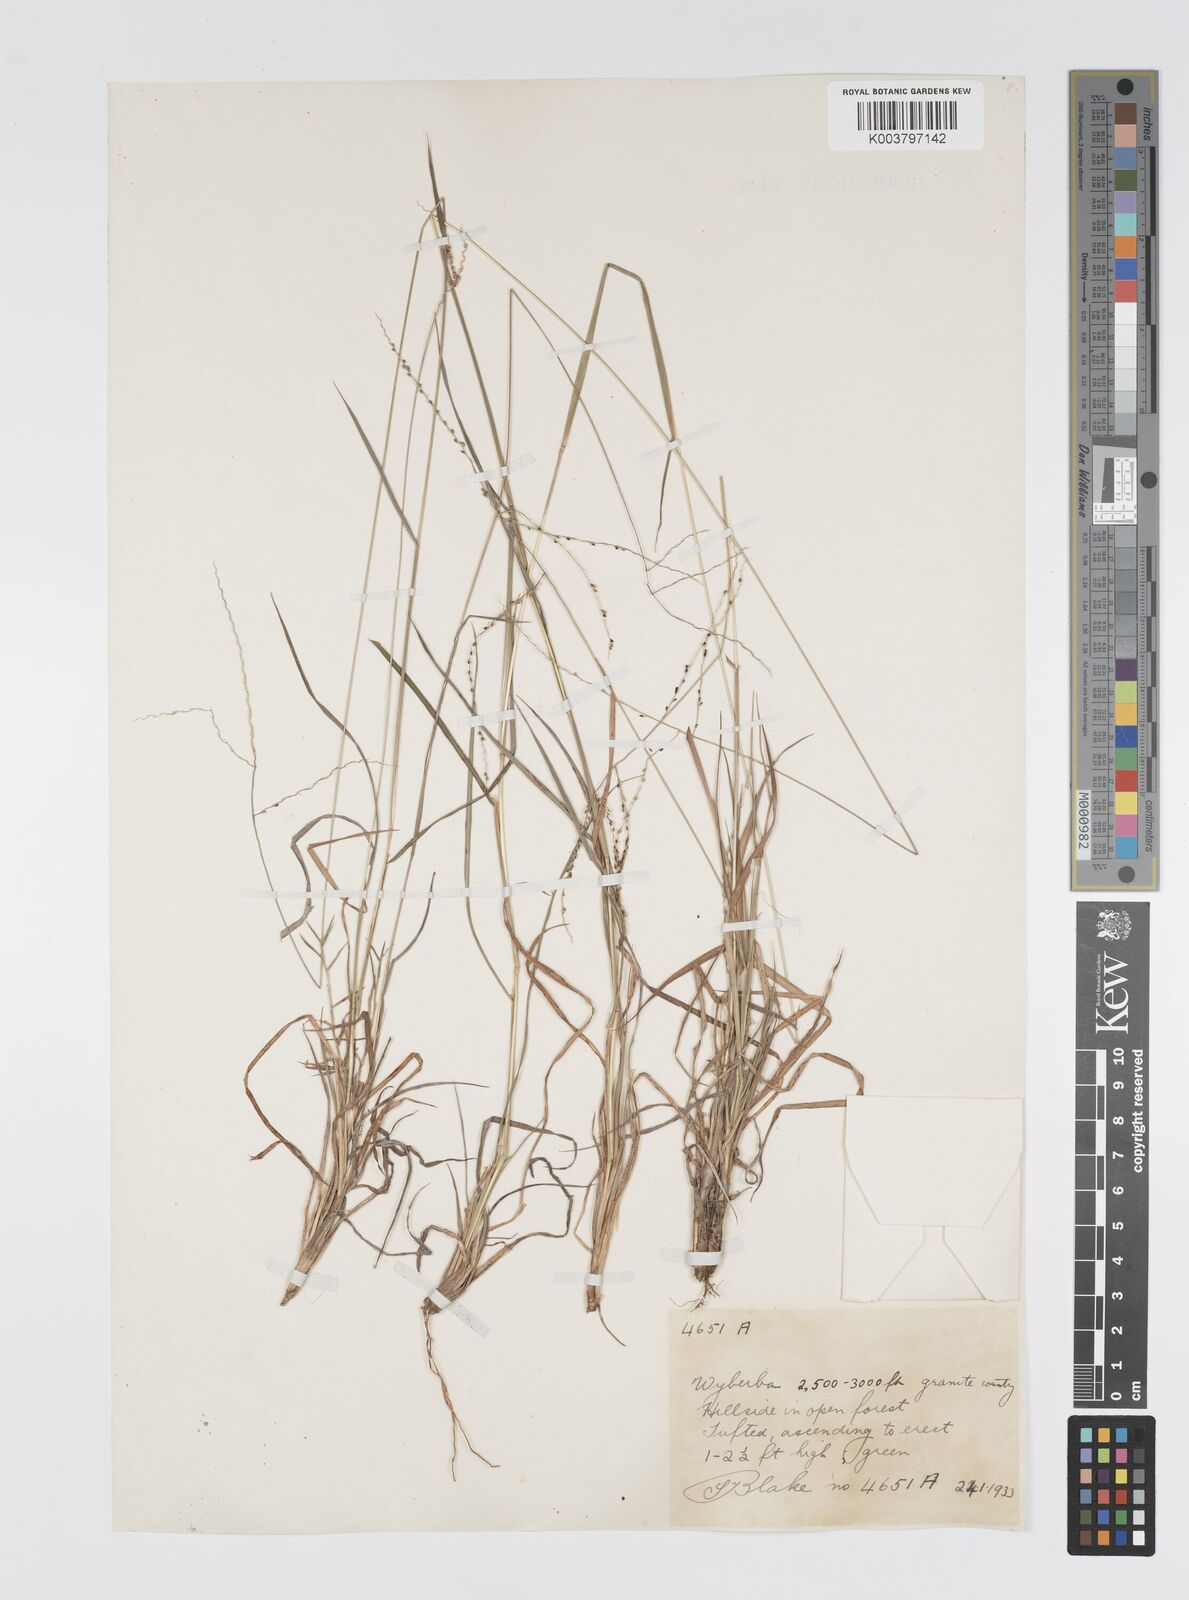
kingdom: Plantae
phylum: Tracheophyta
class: Liliopsida
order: Poales
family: Poaceae
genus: Digitaria
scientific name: Digitaria spec
